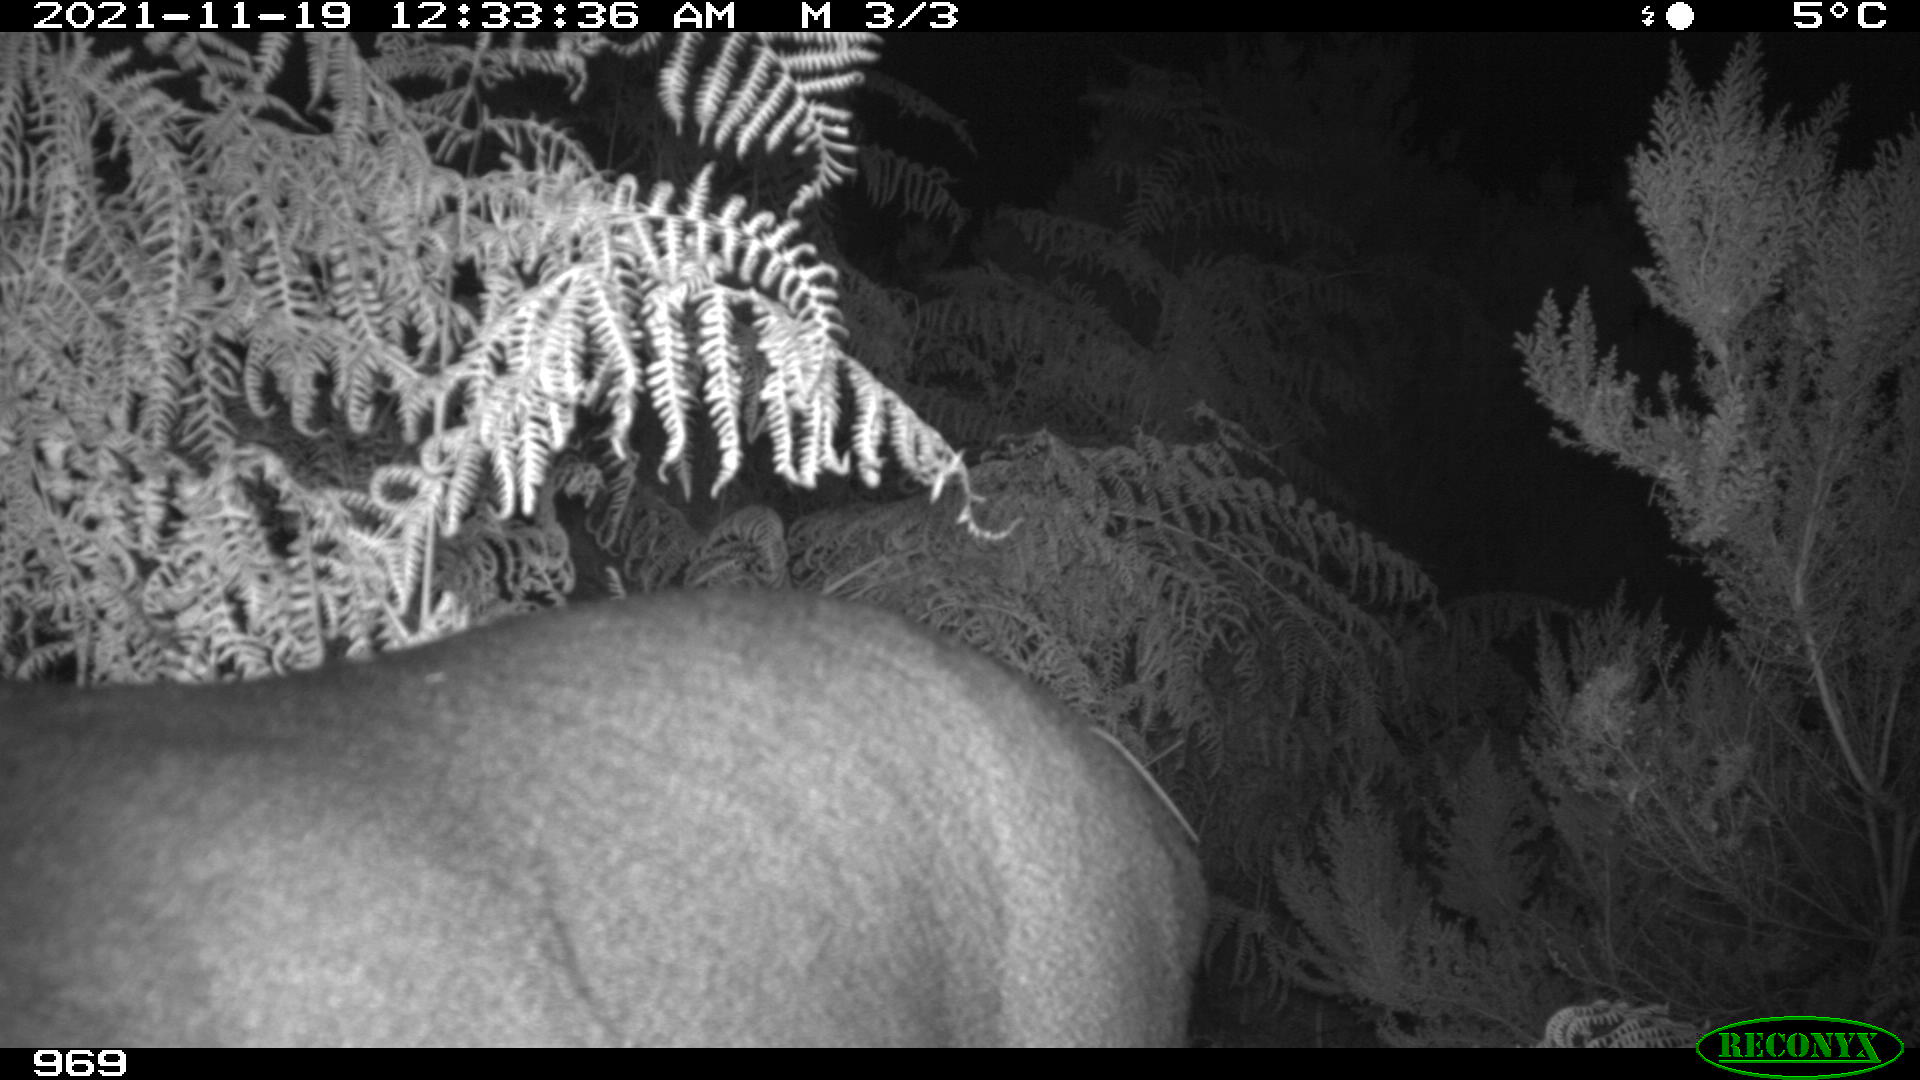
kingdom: Animalia
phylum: Chordata
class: Mammalia
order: Artiodactyla
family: Cervidae
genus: Cervus
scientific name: Cervus elaphus
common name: Red deer
